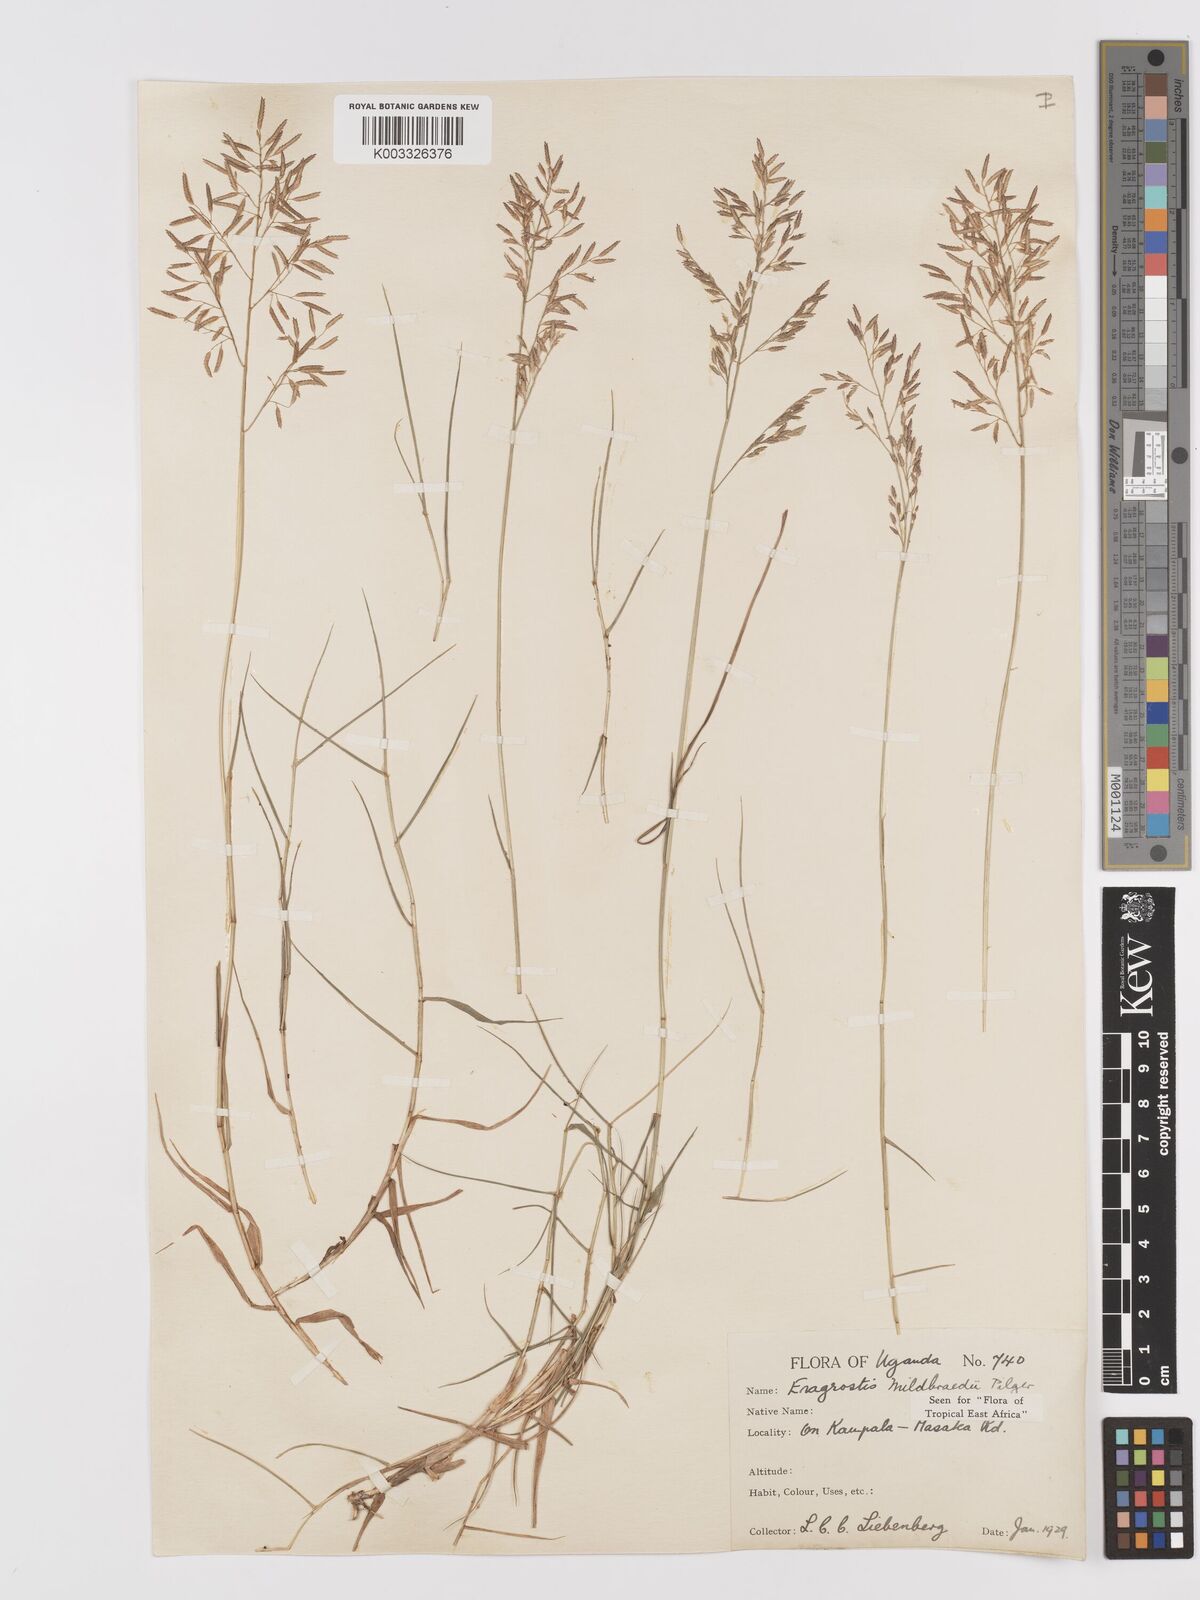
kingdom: Plantae
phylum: Tracheophyta
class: Liliopsida
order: Poales
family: Poaceae
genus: Eragrostis
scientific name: Eragrostis mildbraedii
